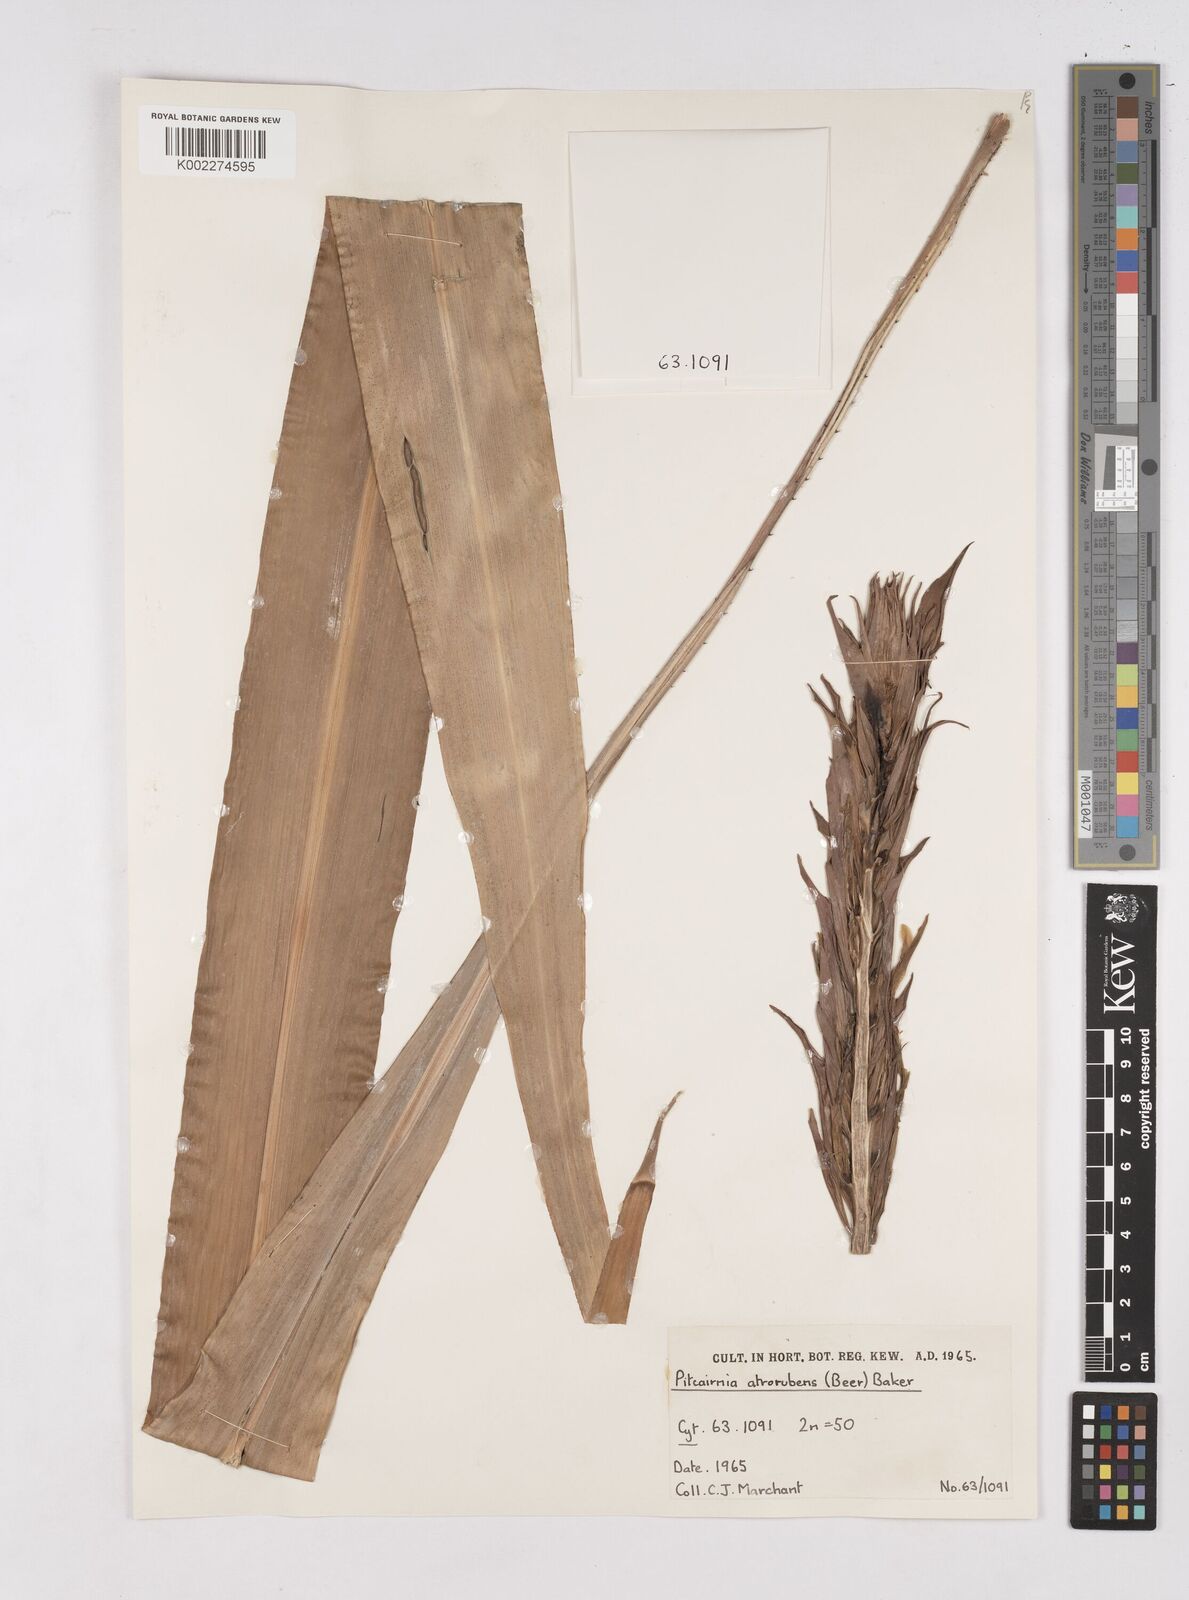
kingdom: Plantae
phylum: Tracheophyta
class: Liliopsida
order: Poales
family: Bromeliaceae
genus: Pitcairnia
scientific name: Pitcairnia atrorubens
